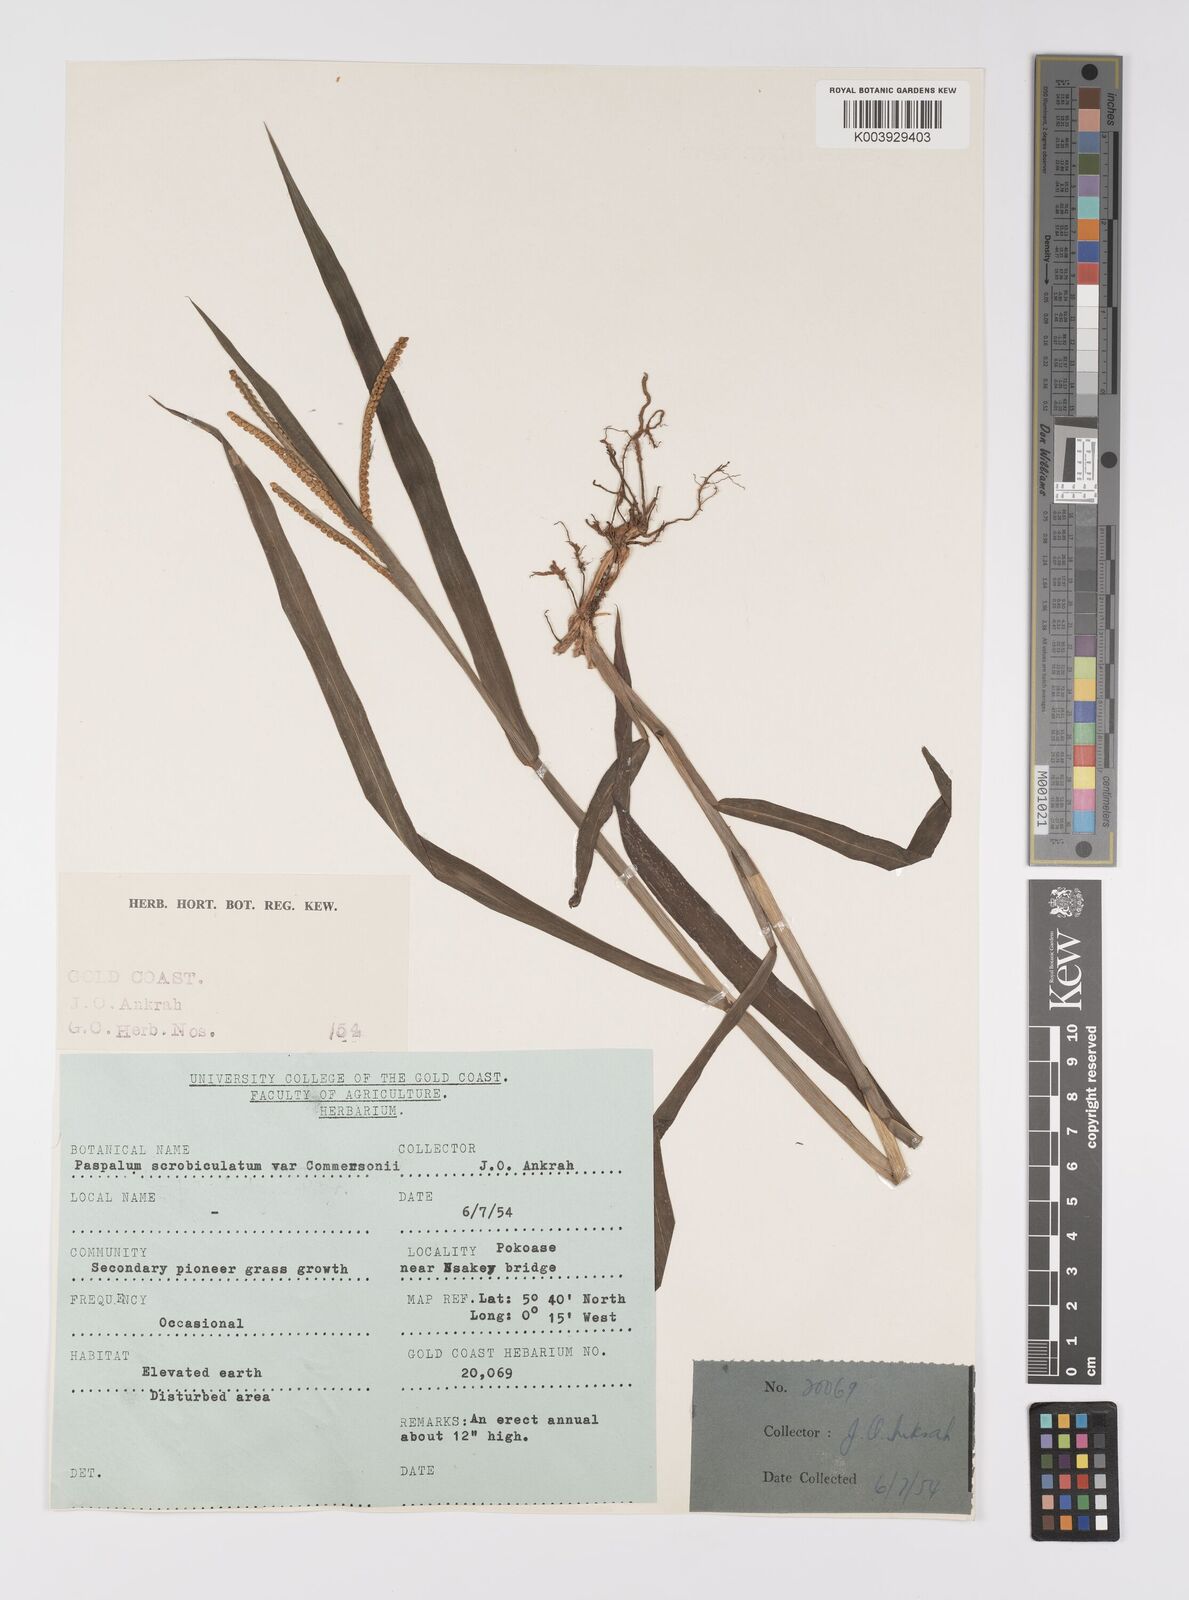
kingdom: Plantae
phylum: Tracheophyta
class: Liliopsida
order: Poales
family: Poaceae
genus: Paspalum
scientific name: Paspalum scrobiculatum
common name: Kodo millet
